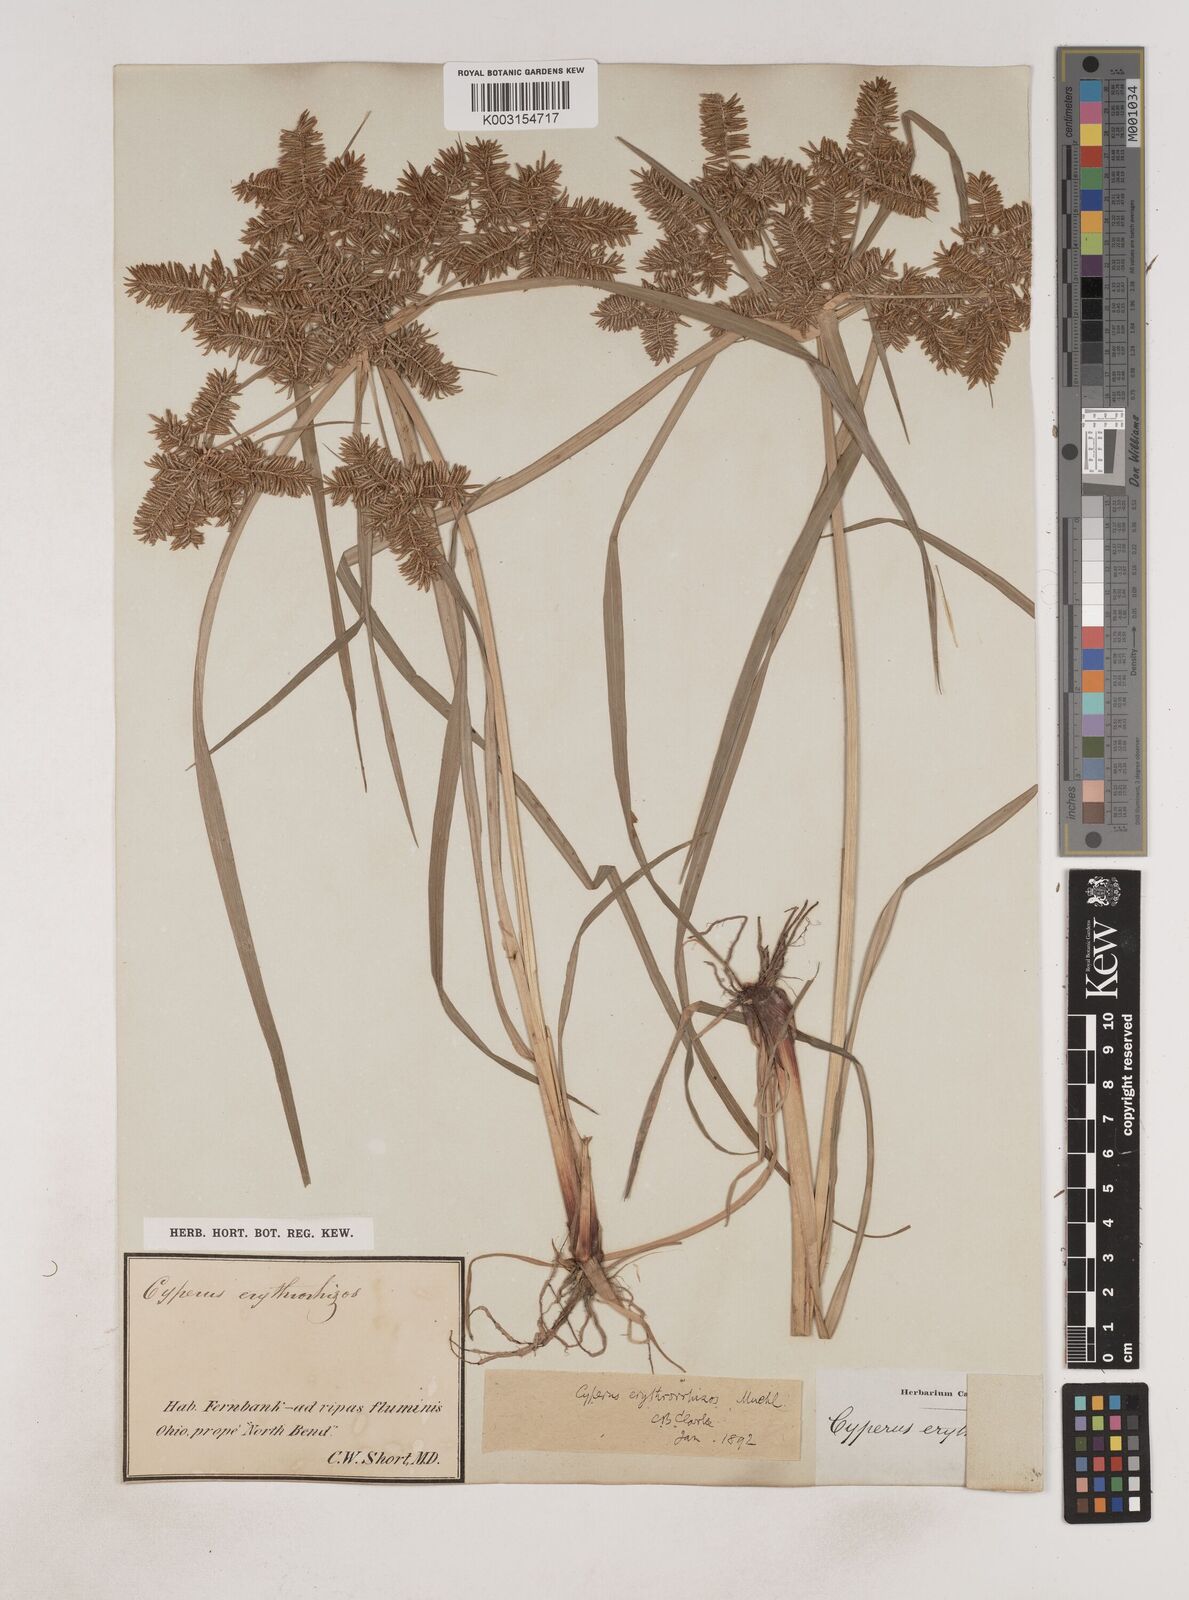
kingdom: Plantae
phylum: Tracheophyta
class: Liliopsida
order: Poales
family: Cyperaceae
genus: Cyperus
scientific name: Cyperus erythrorhizos
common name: Red-root flat sedge
